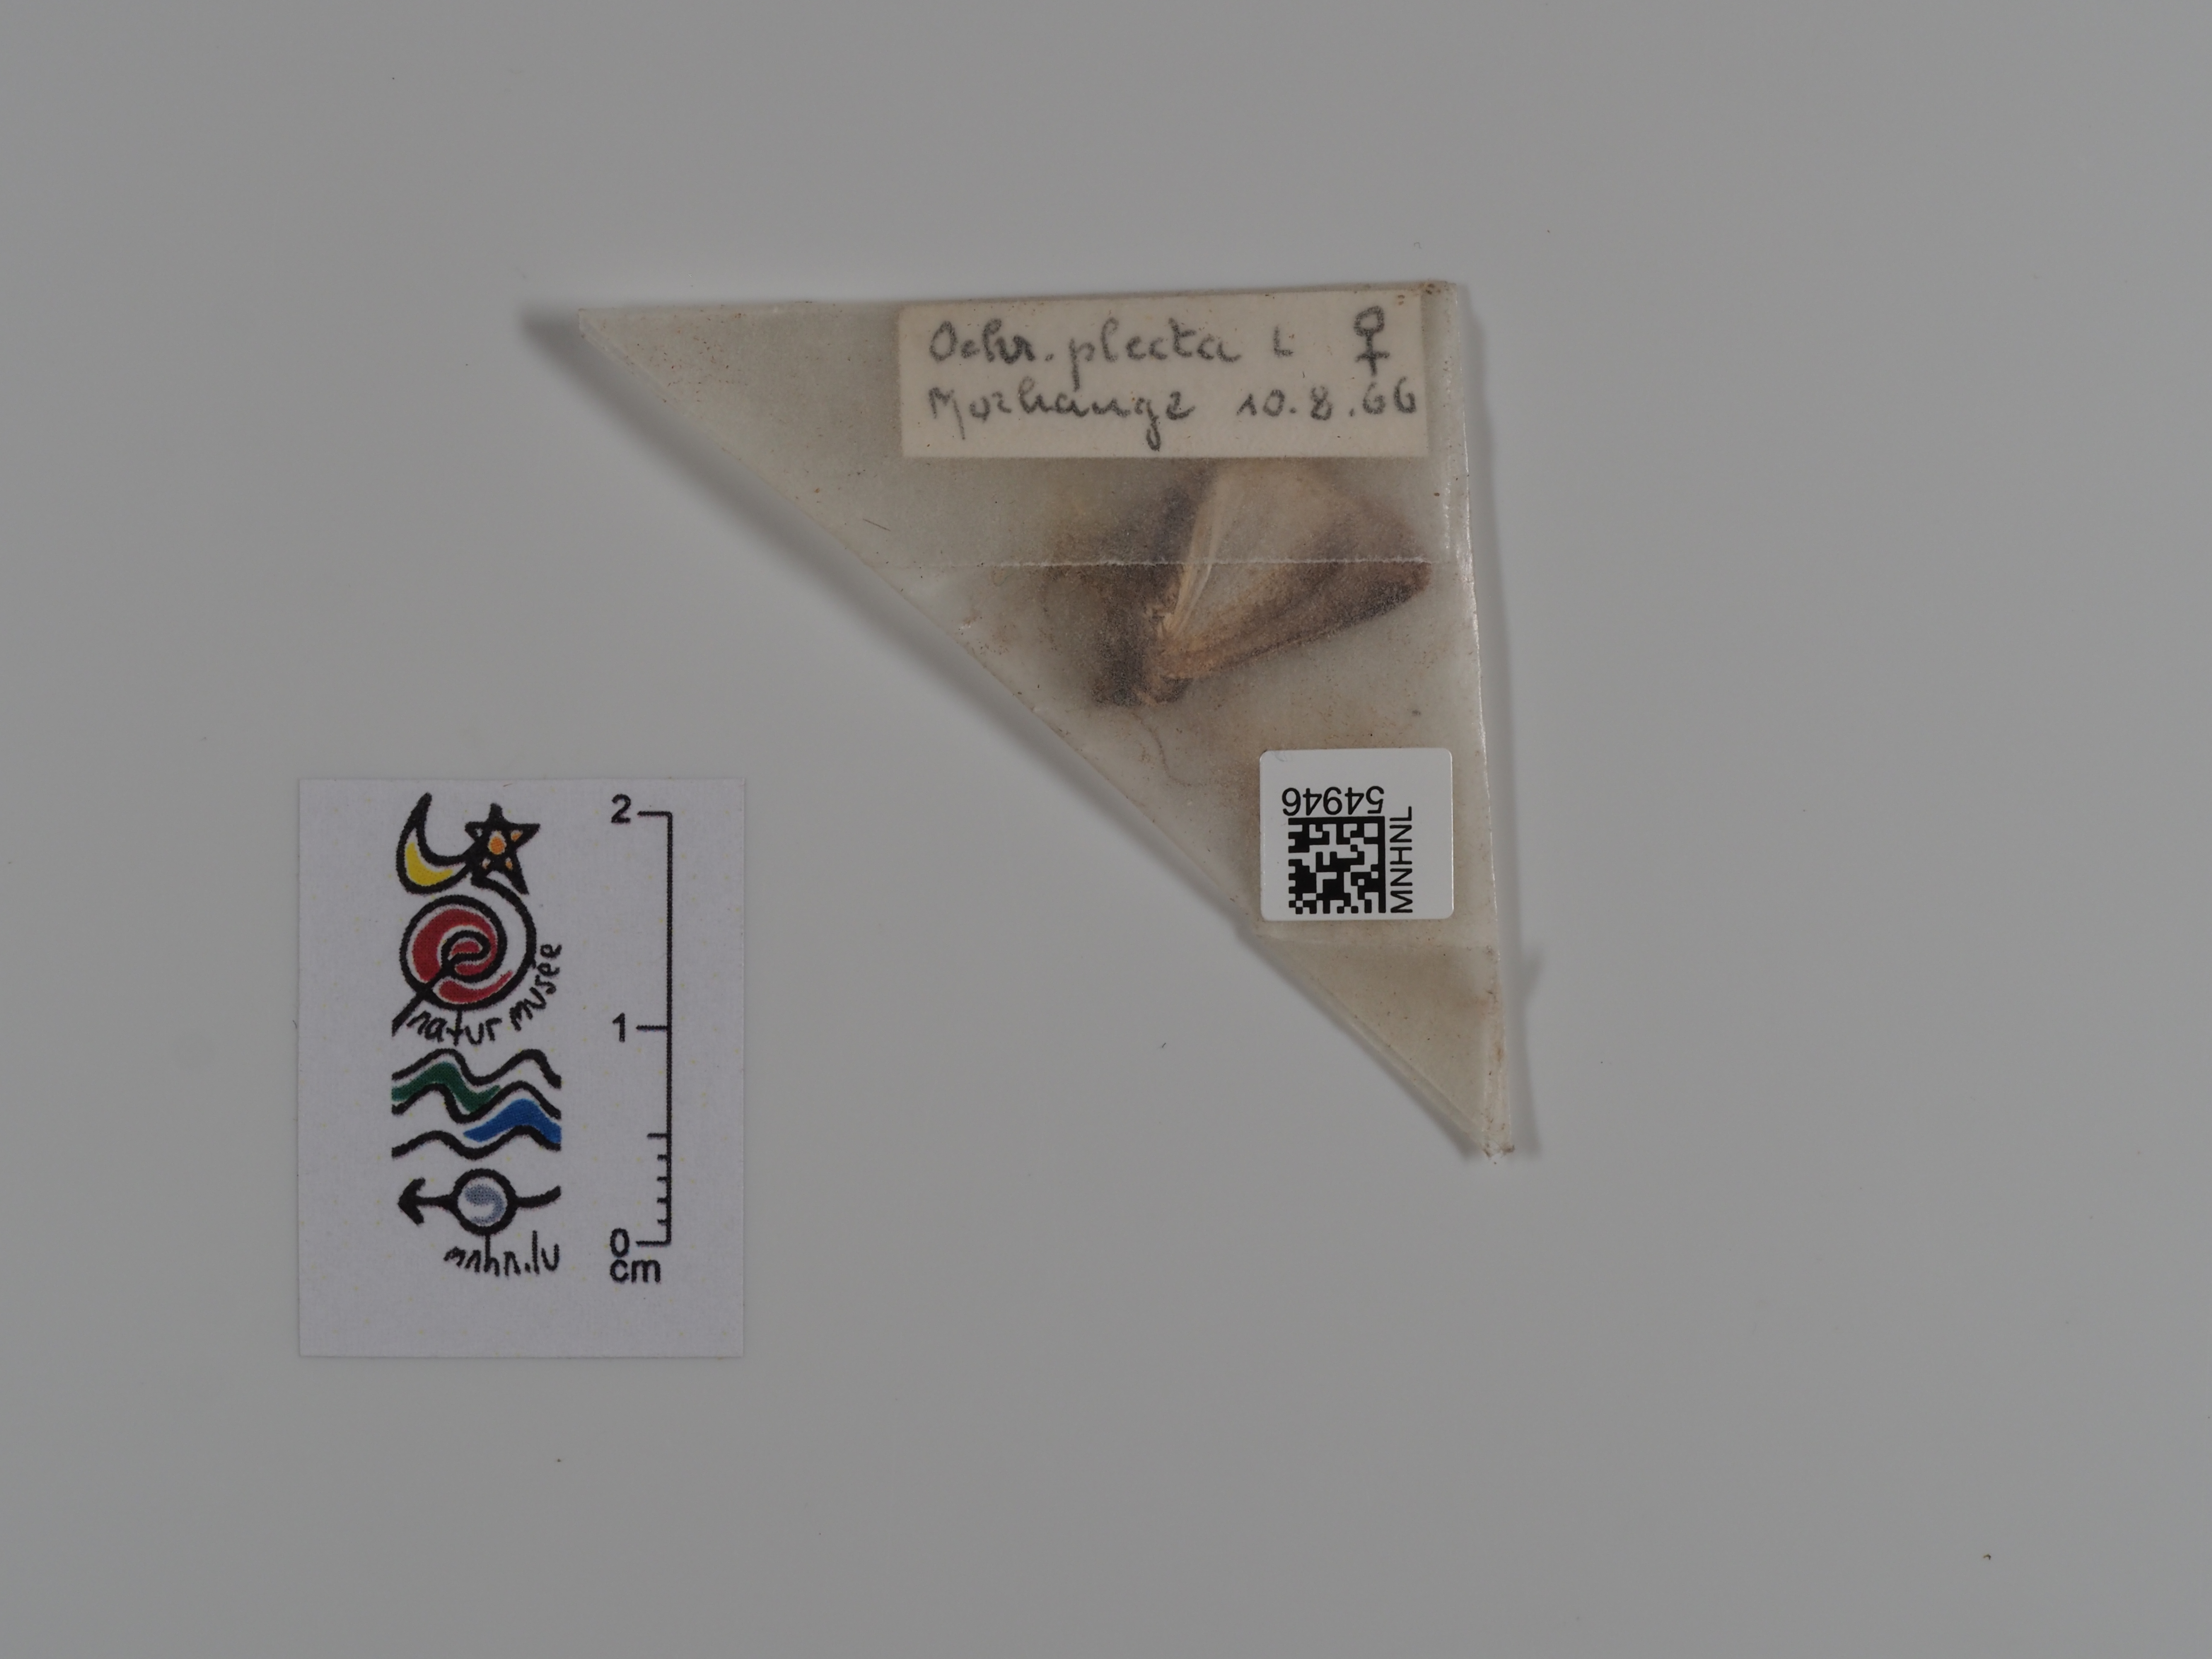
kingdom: Animalia
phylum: Arthropoda
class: Insecta
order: Lepidoptera
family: Noctuidae
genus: Ochropleura
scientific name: Ochropleura plecta
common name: Flame shoulder
